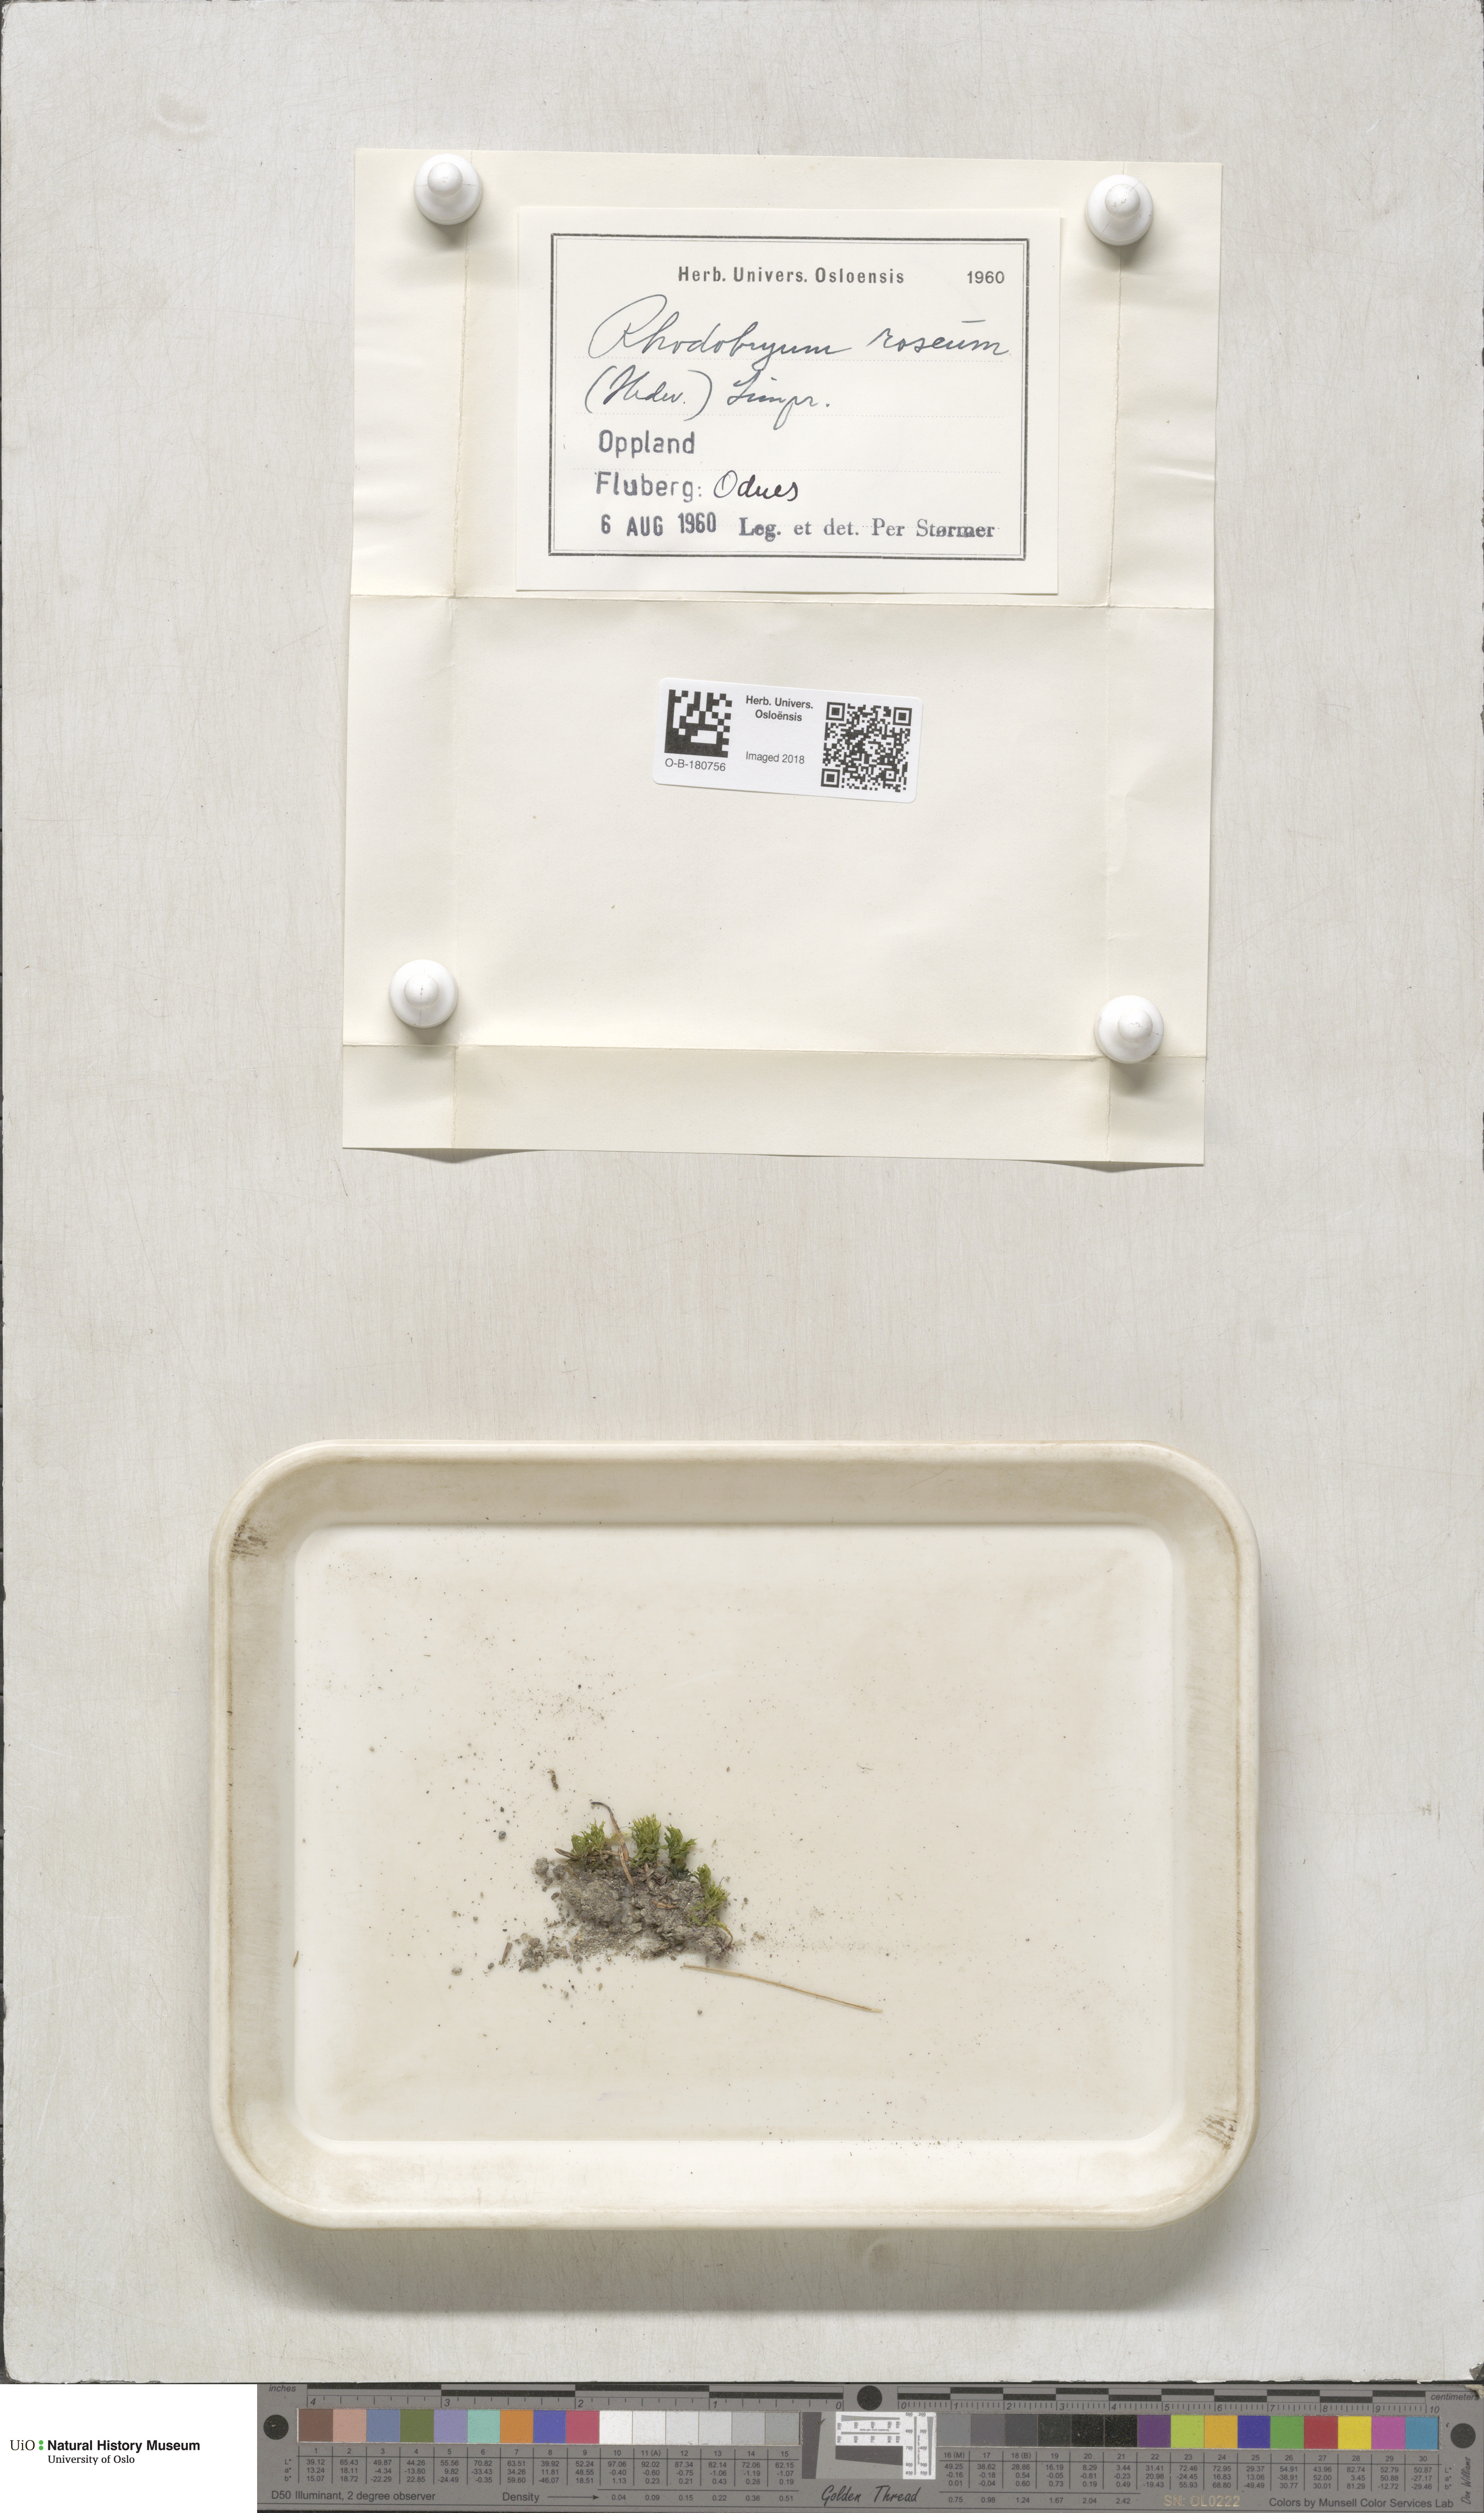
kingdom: Plantae
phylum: Bryophyta
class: Bryopsida
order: Bryales
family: Bryaceae
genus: Rhodobryum
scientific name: Rhodobryum roseum
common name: Rose-moss
